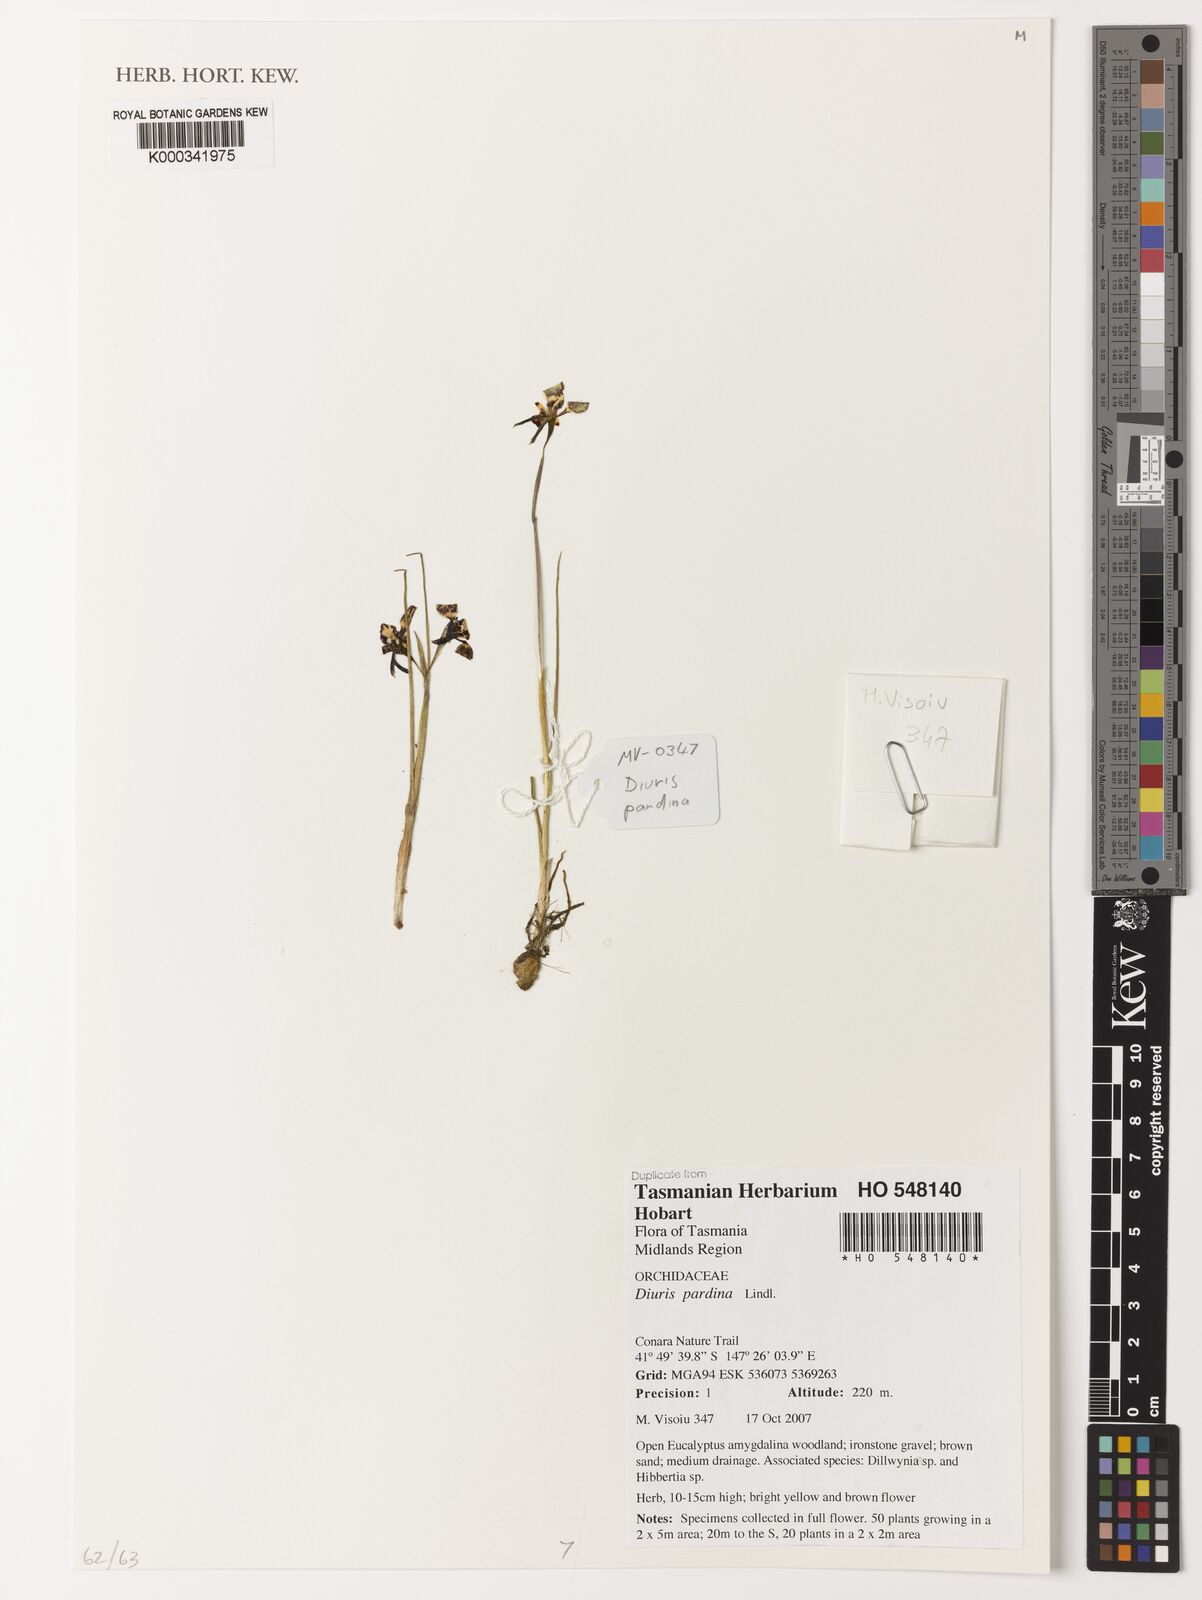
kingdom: Plantae
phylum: Tracheophyta
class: Liliopsida
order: Asparagales
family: Orchidaceae
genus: Diuris
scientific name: Diuris pardina
